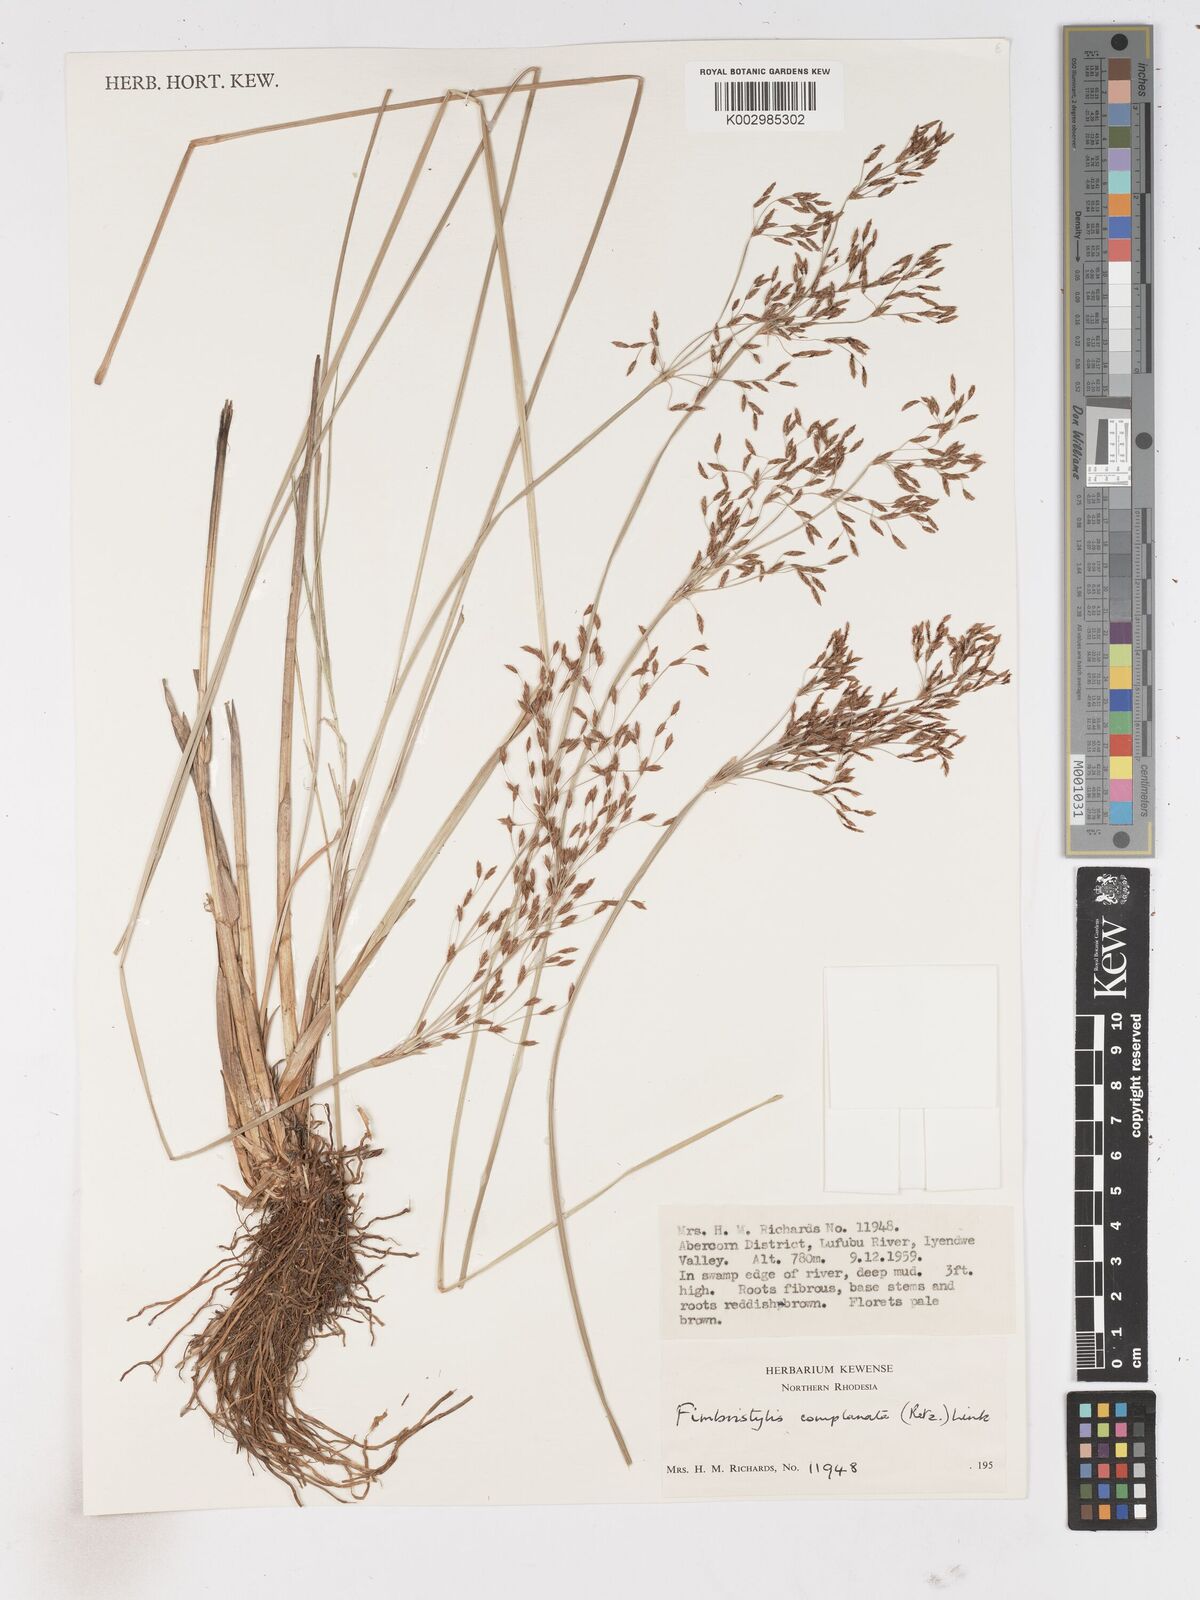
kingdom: Plantae
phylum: Tracheophyta
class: Liliopsida
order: Poales
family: Cyperaceae
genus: Fimbristylis
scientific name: Fimbristylis complanata
